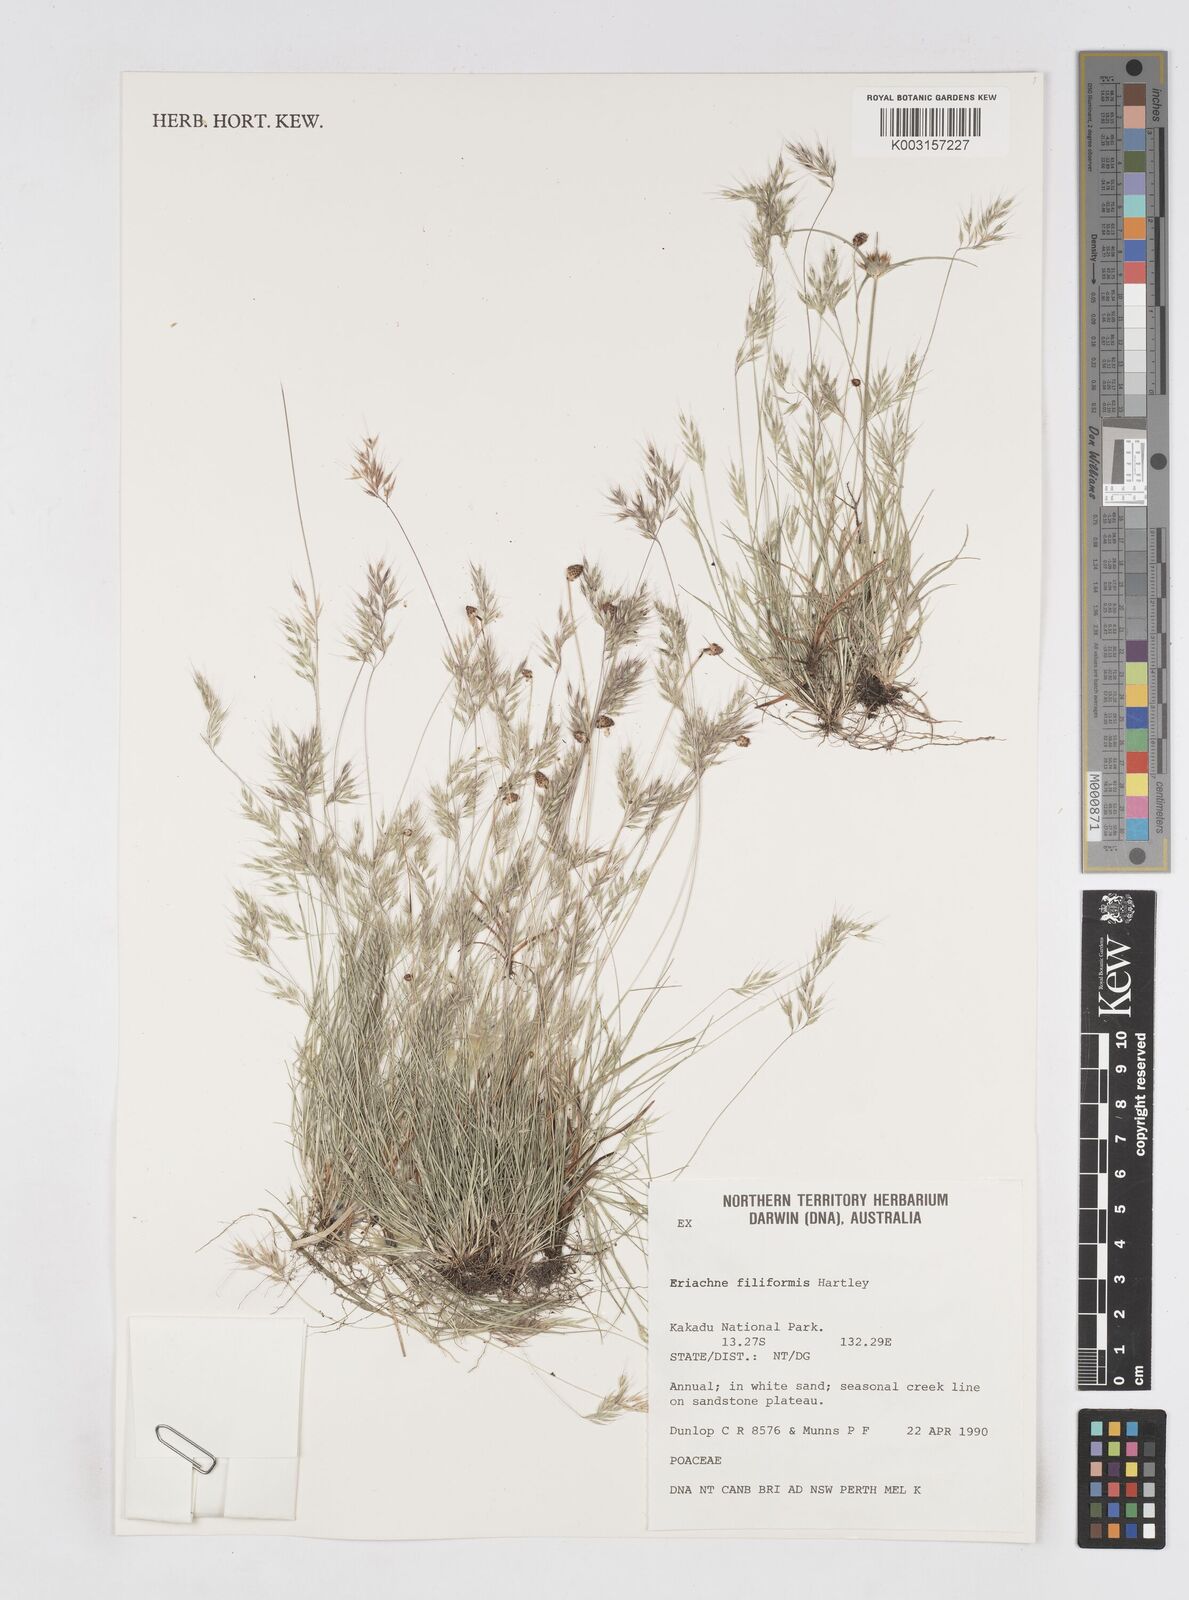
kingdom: Plantae
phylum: Tracheophyta
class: Liliopsida
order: Poales
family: Poaceae
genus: Eriachne
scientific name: Eriachne filiformis
